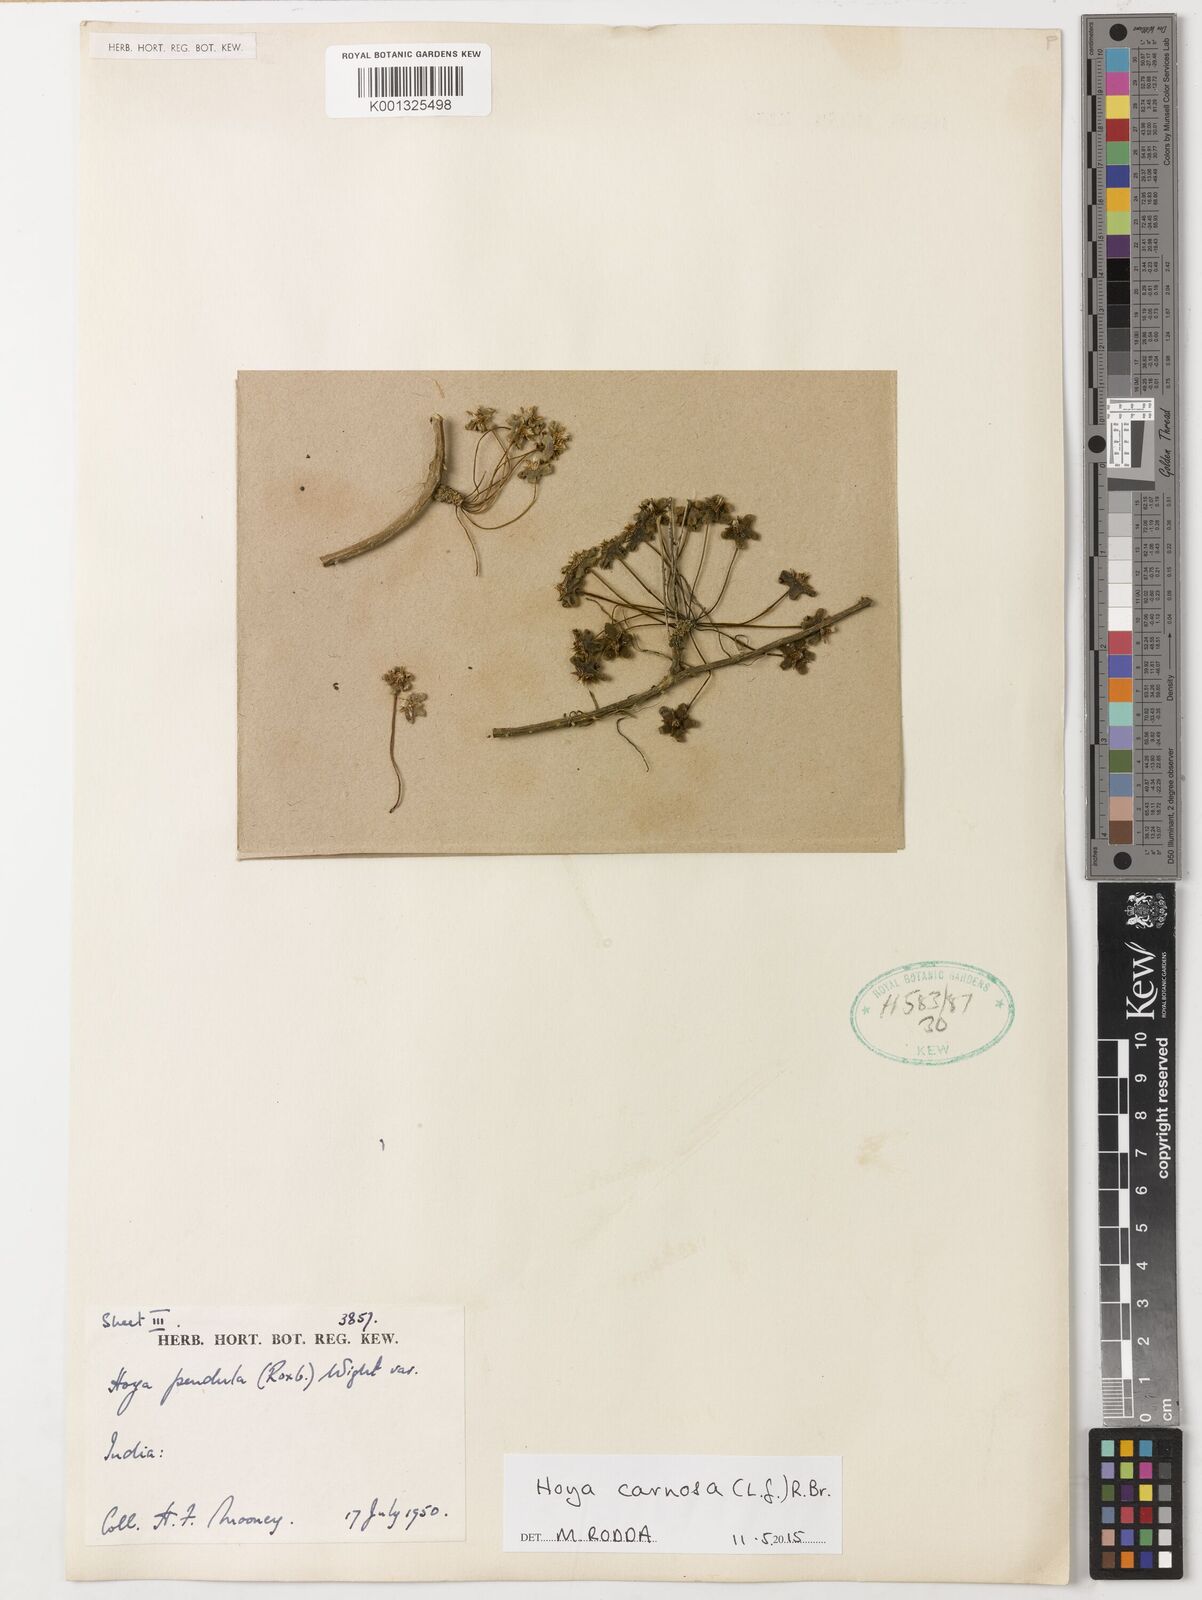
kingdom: Plantae
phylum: Tracheophyta
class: Magnoliopsida
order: Gentianales
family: Apocynaceae
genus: Hoya
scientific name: Hoya carnosa
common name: Honeyplant
